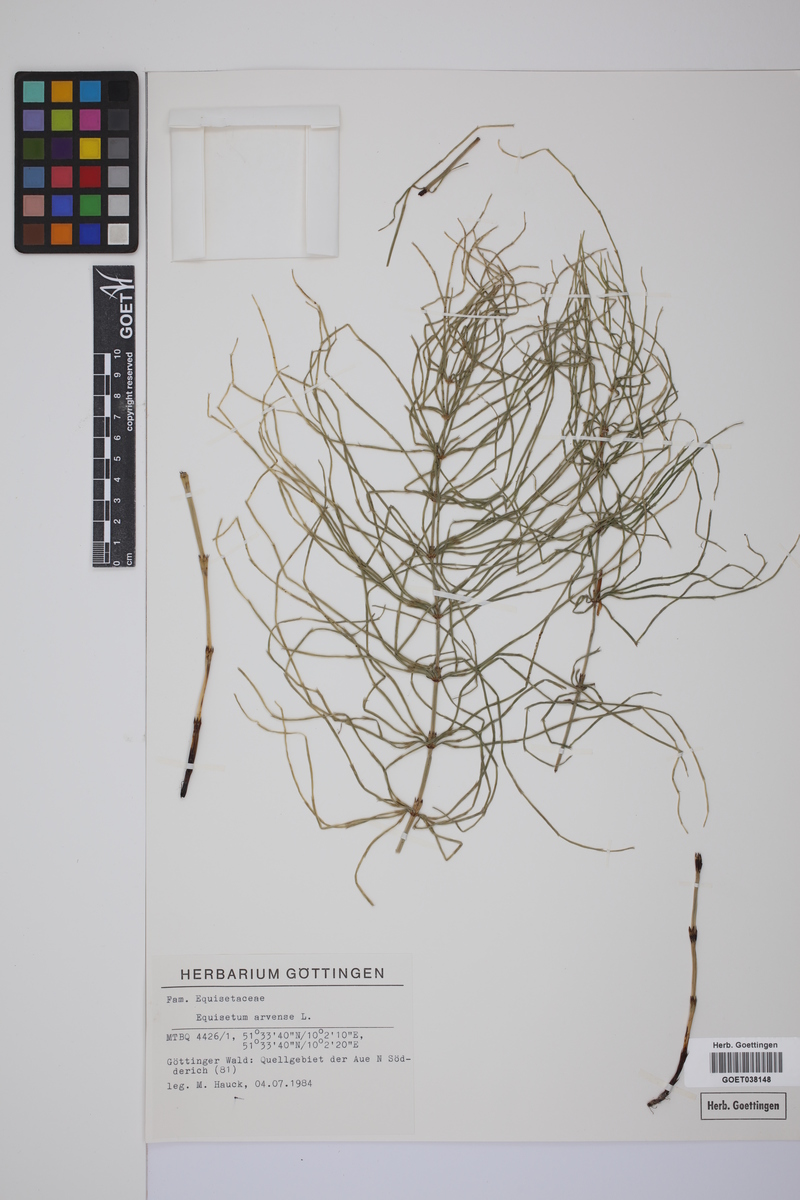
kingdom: Plantae
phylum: Tracheophyta
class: Polypodiopsida
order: Equisetales
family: Equisetaceae
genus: Equisetum
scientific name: Equisetum arvense
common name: Field horsetail
